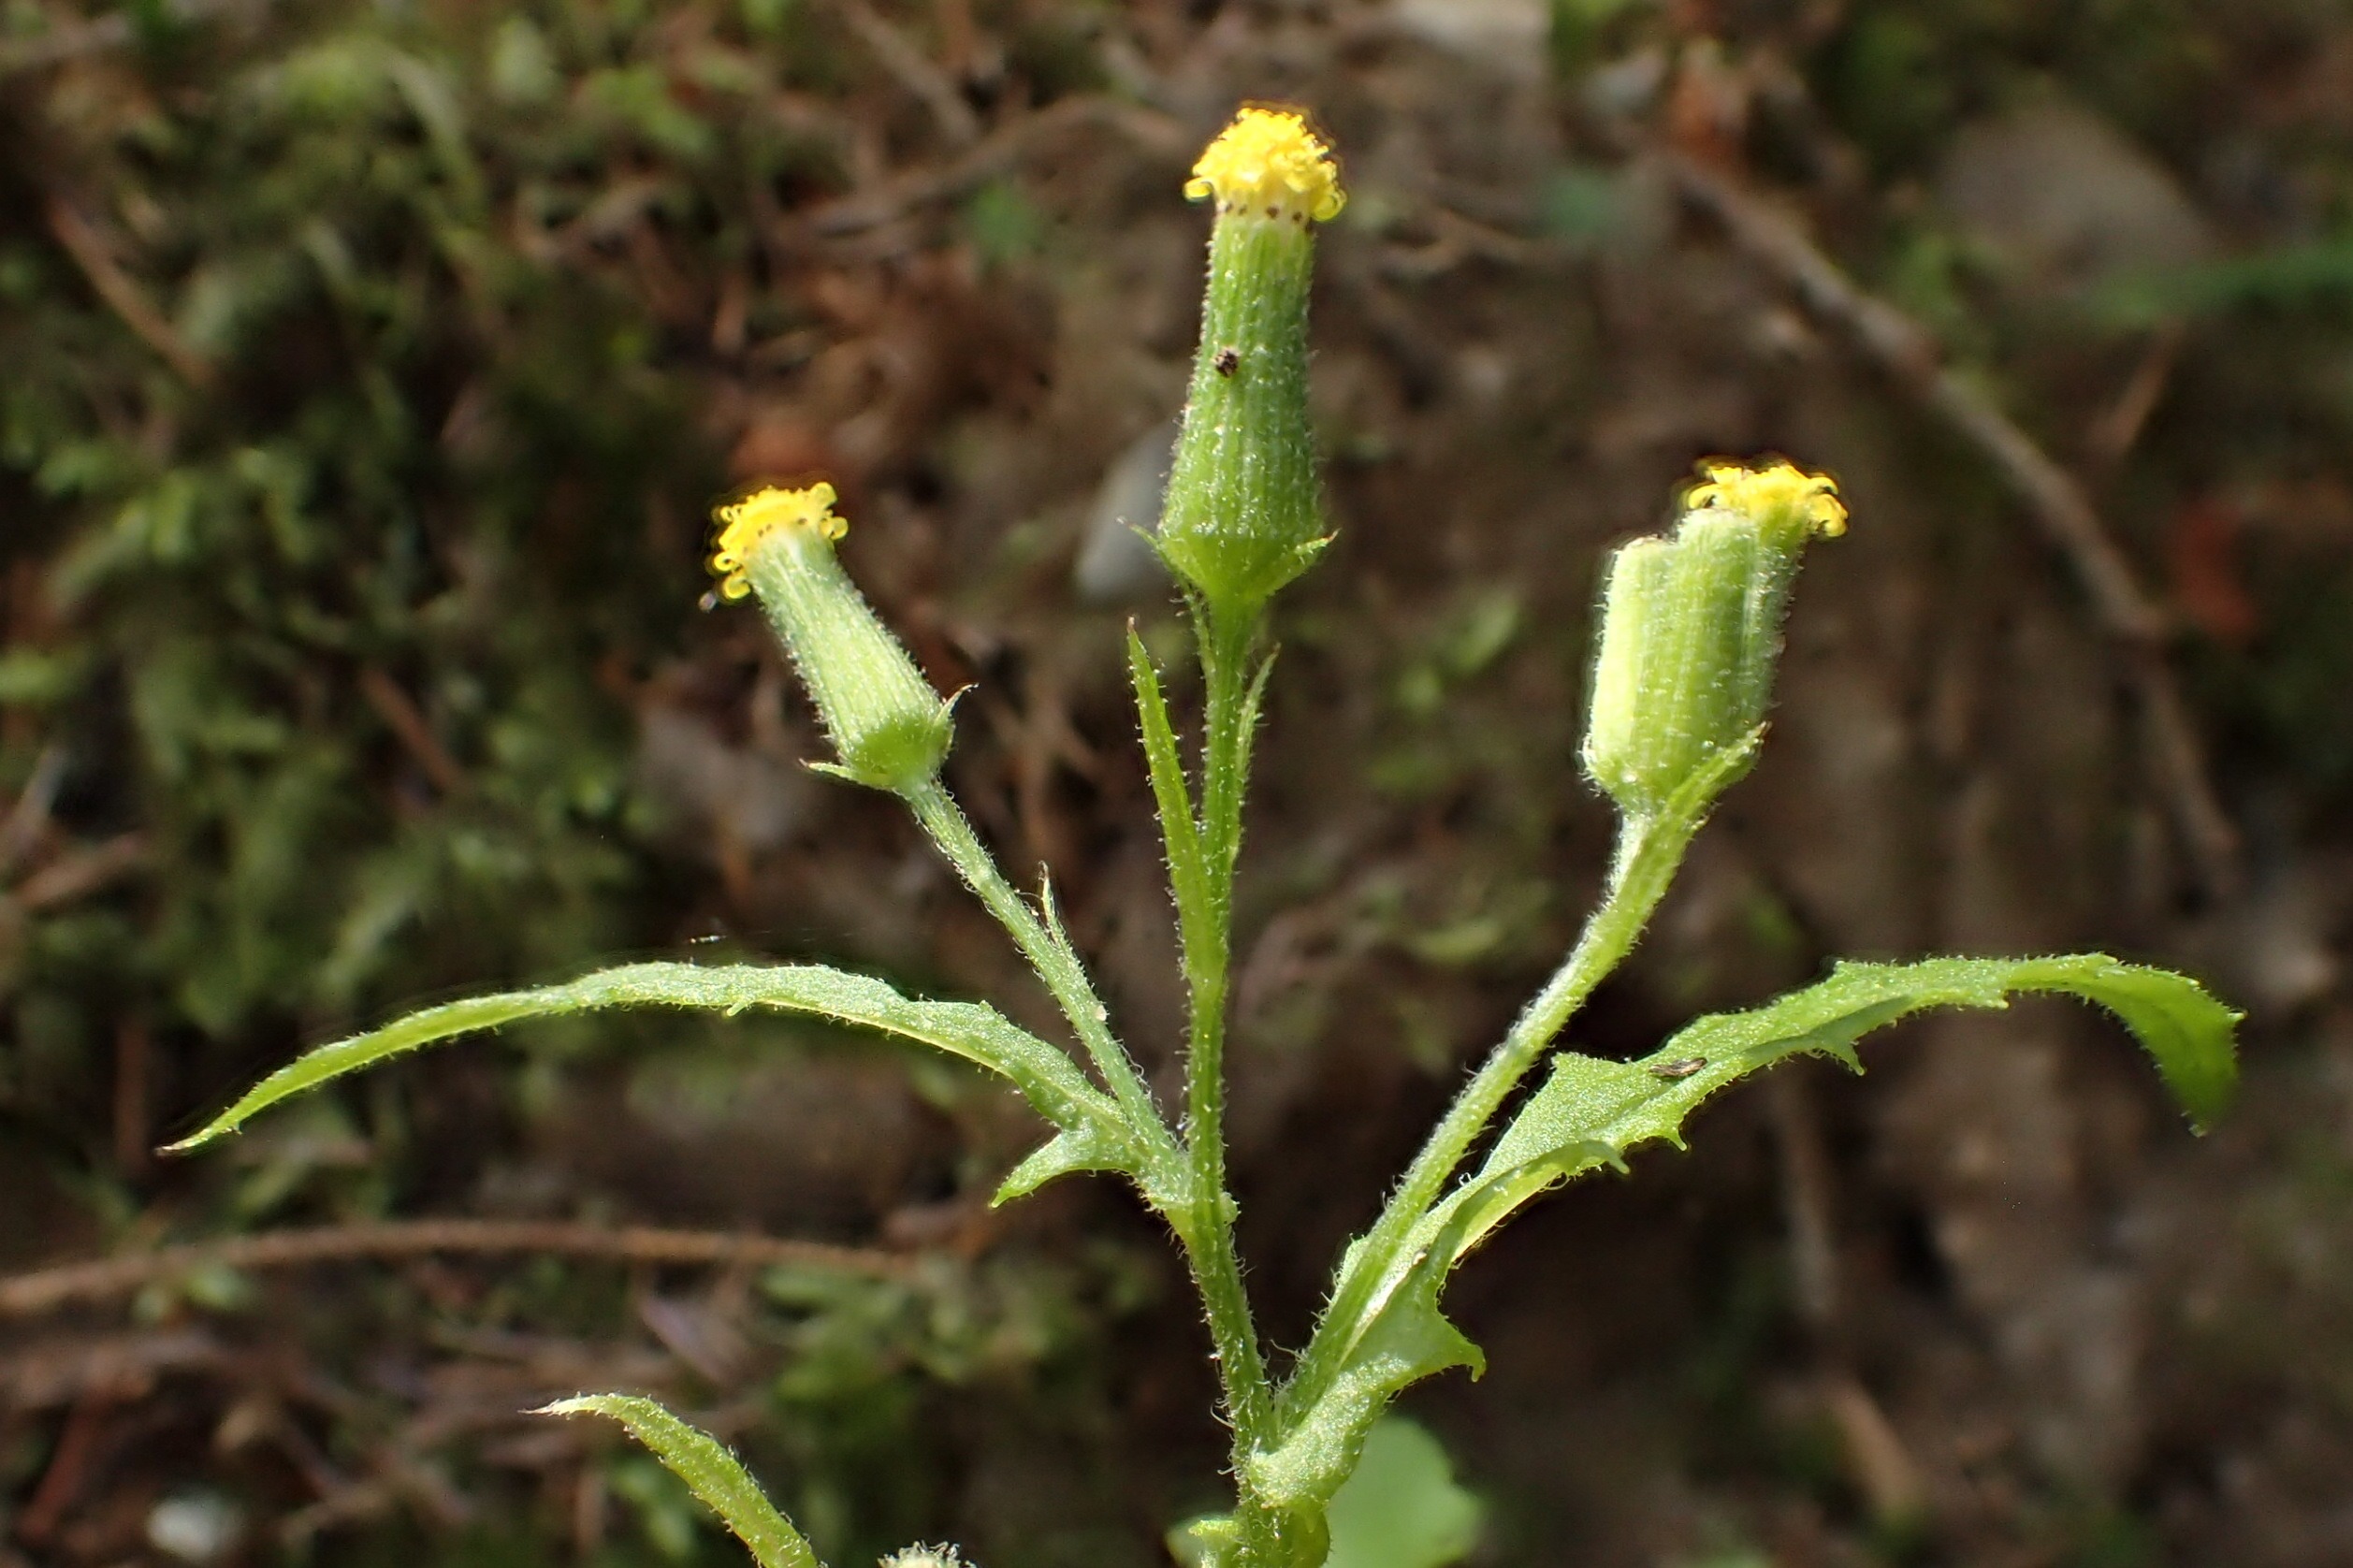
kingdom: Plantae
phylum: Tracheophyta
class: Magnoliopsida
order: Asterales
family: Asteraceae
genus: Senecio
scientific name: Senecio sylvaticus
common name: Skov-brandbæger
